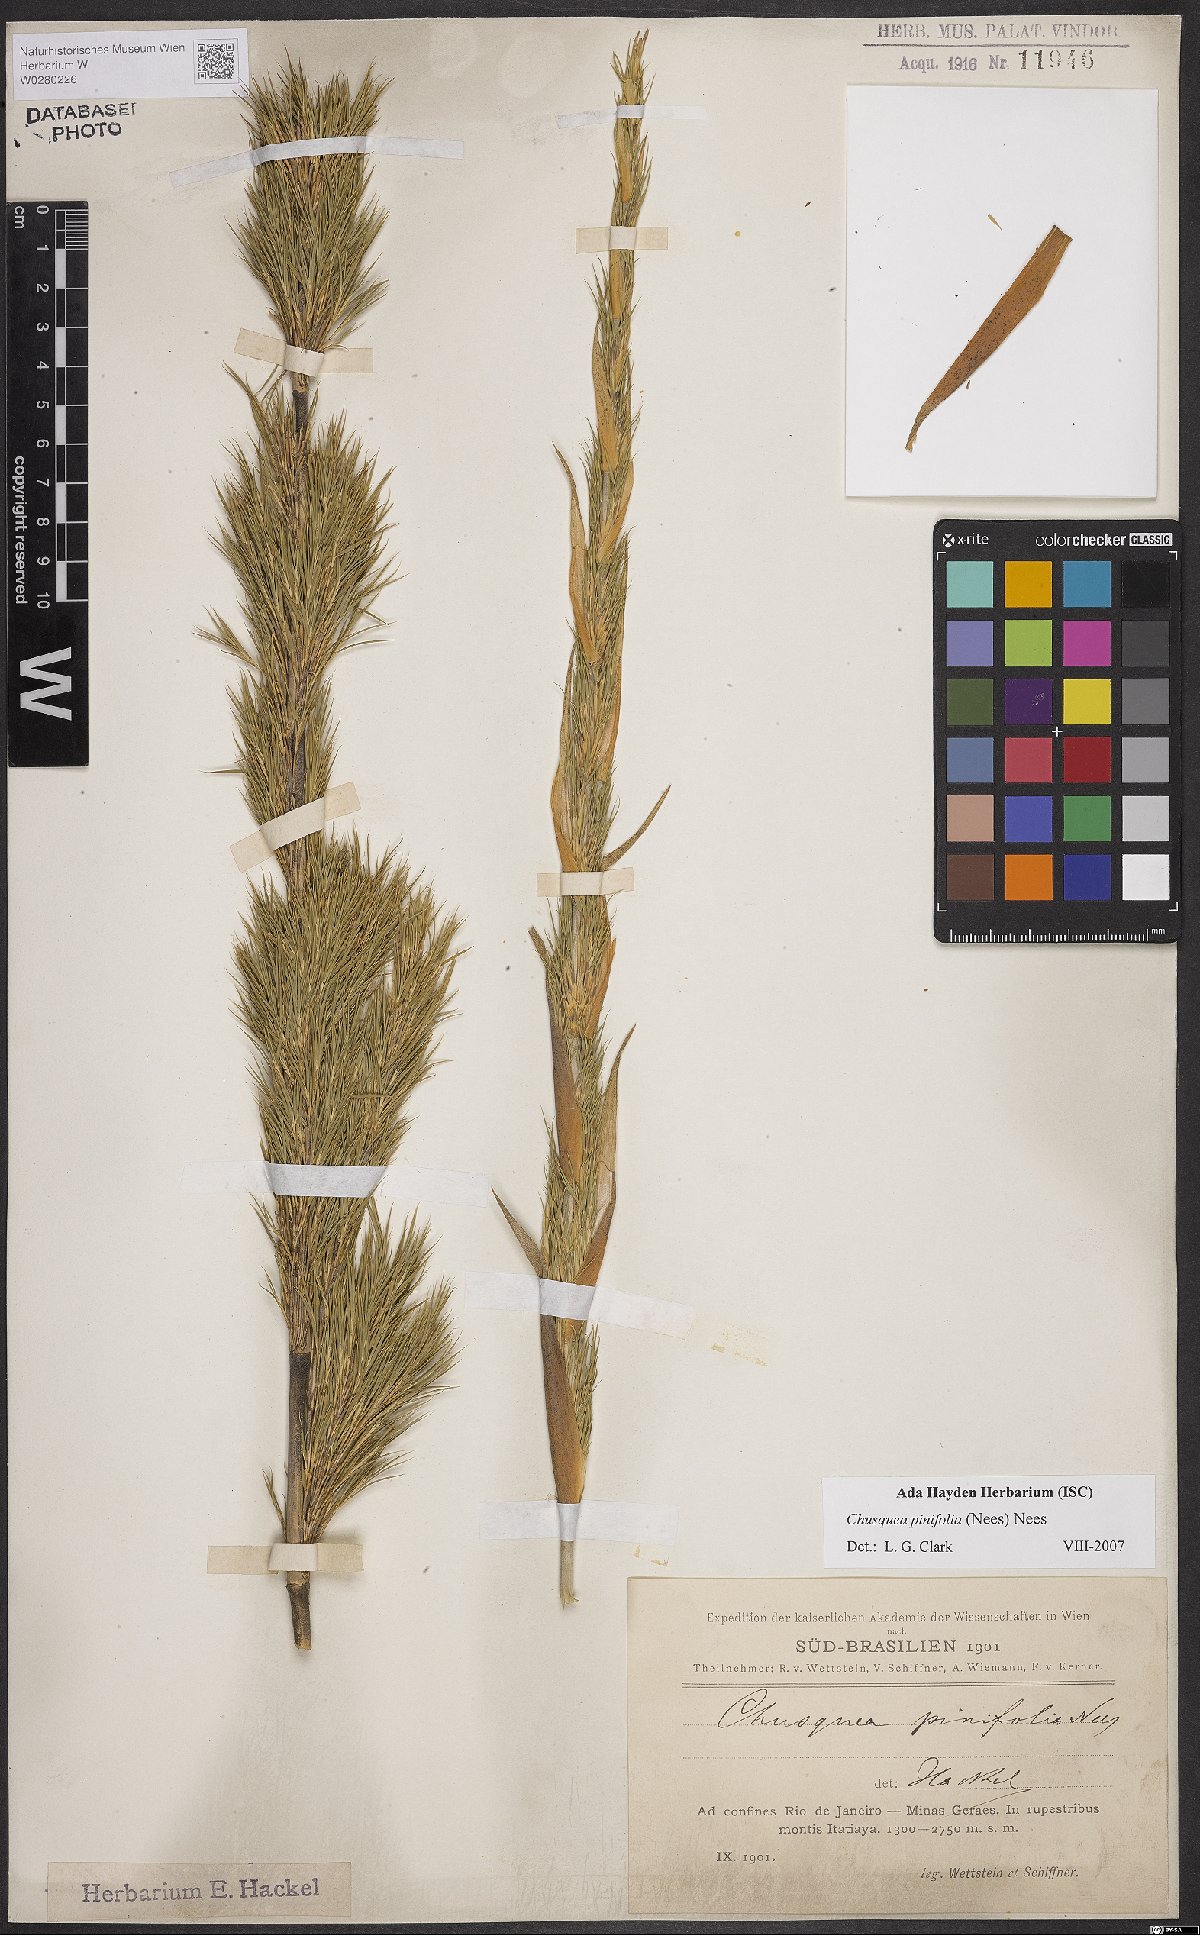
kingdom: Plantae
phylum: Tracheophyta
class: Liliopsida
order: Poales
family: Poaceae
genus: Chusquea
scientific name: Chusquea pinifolia
